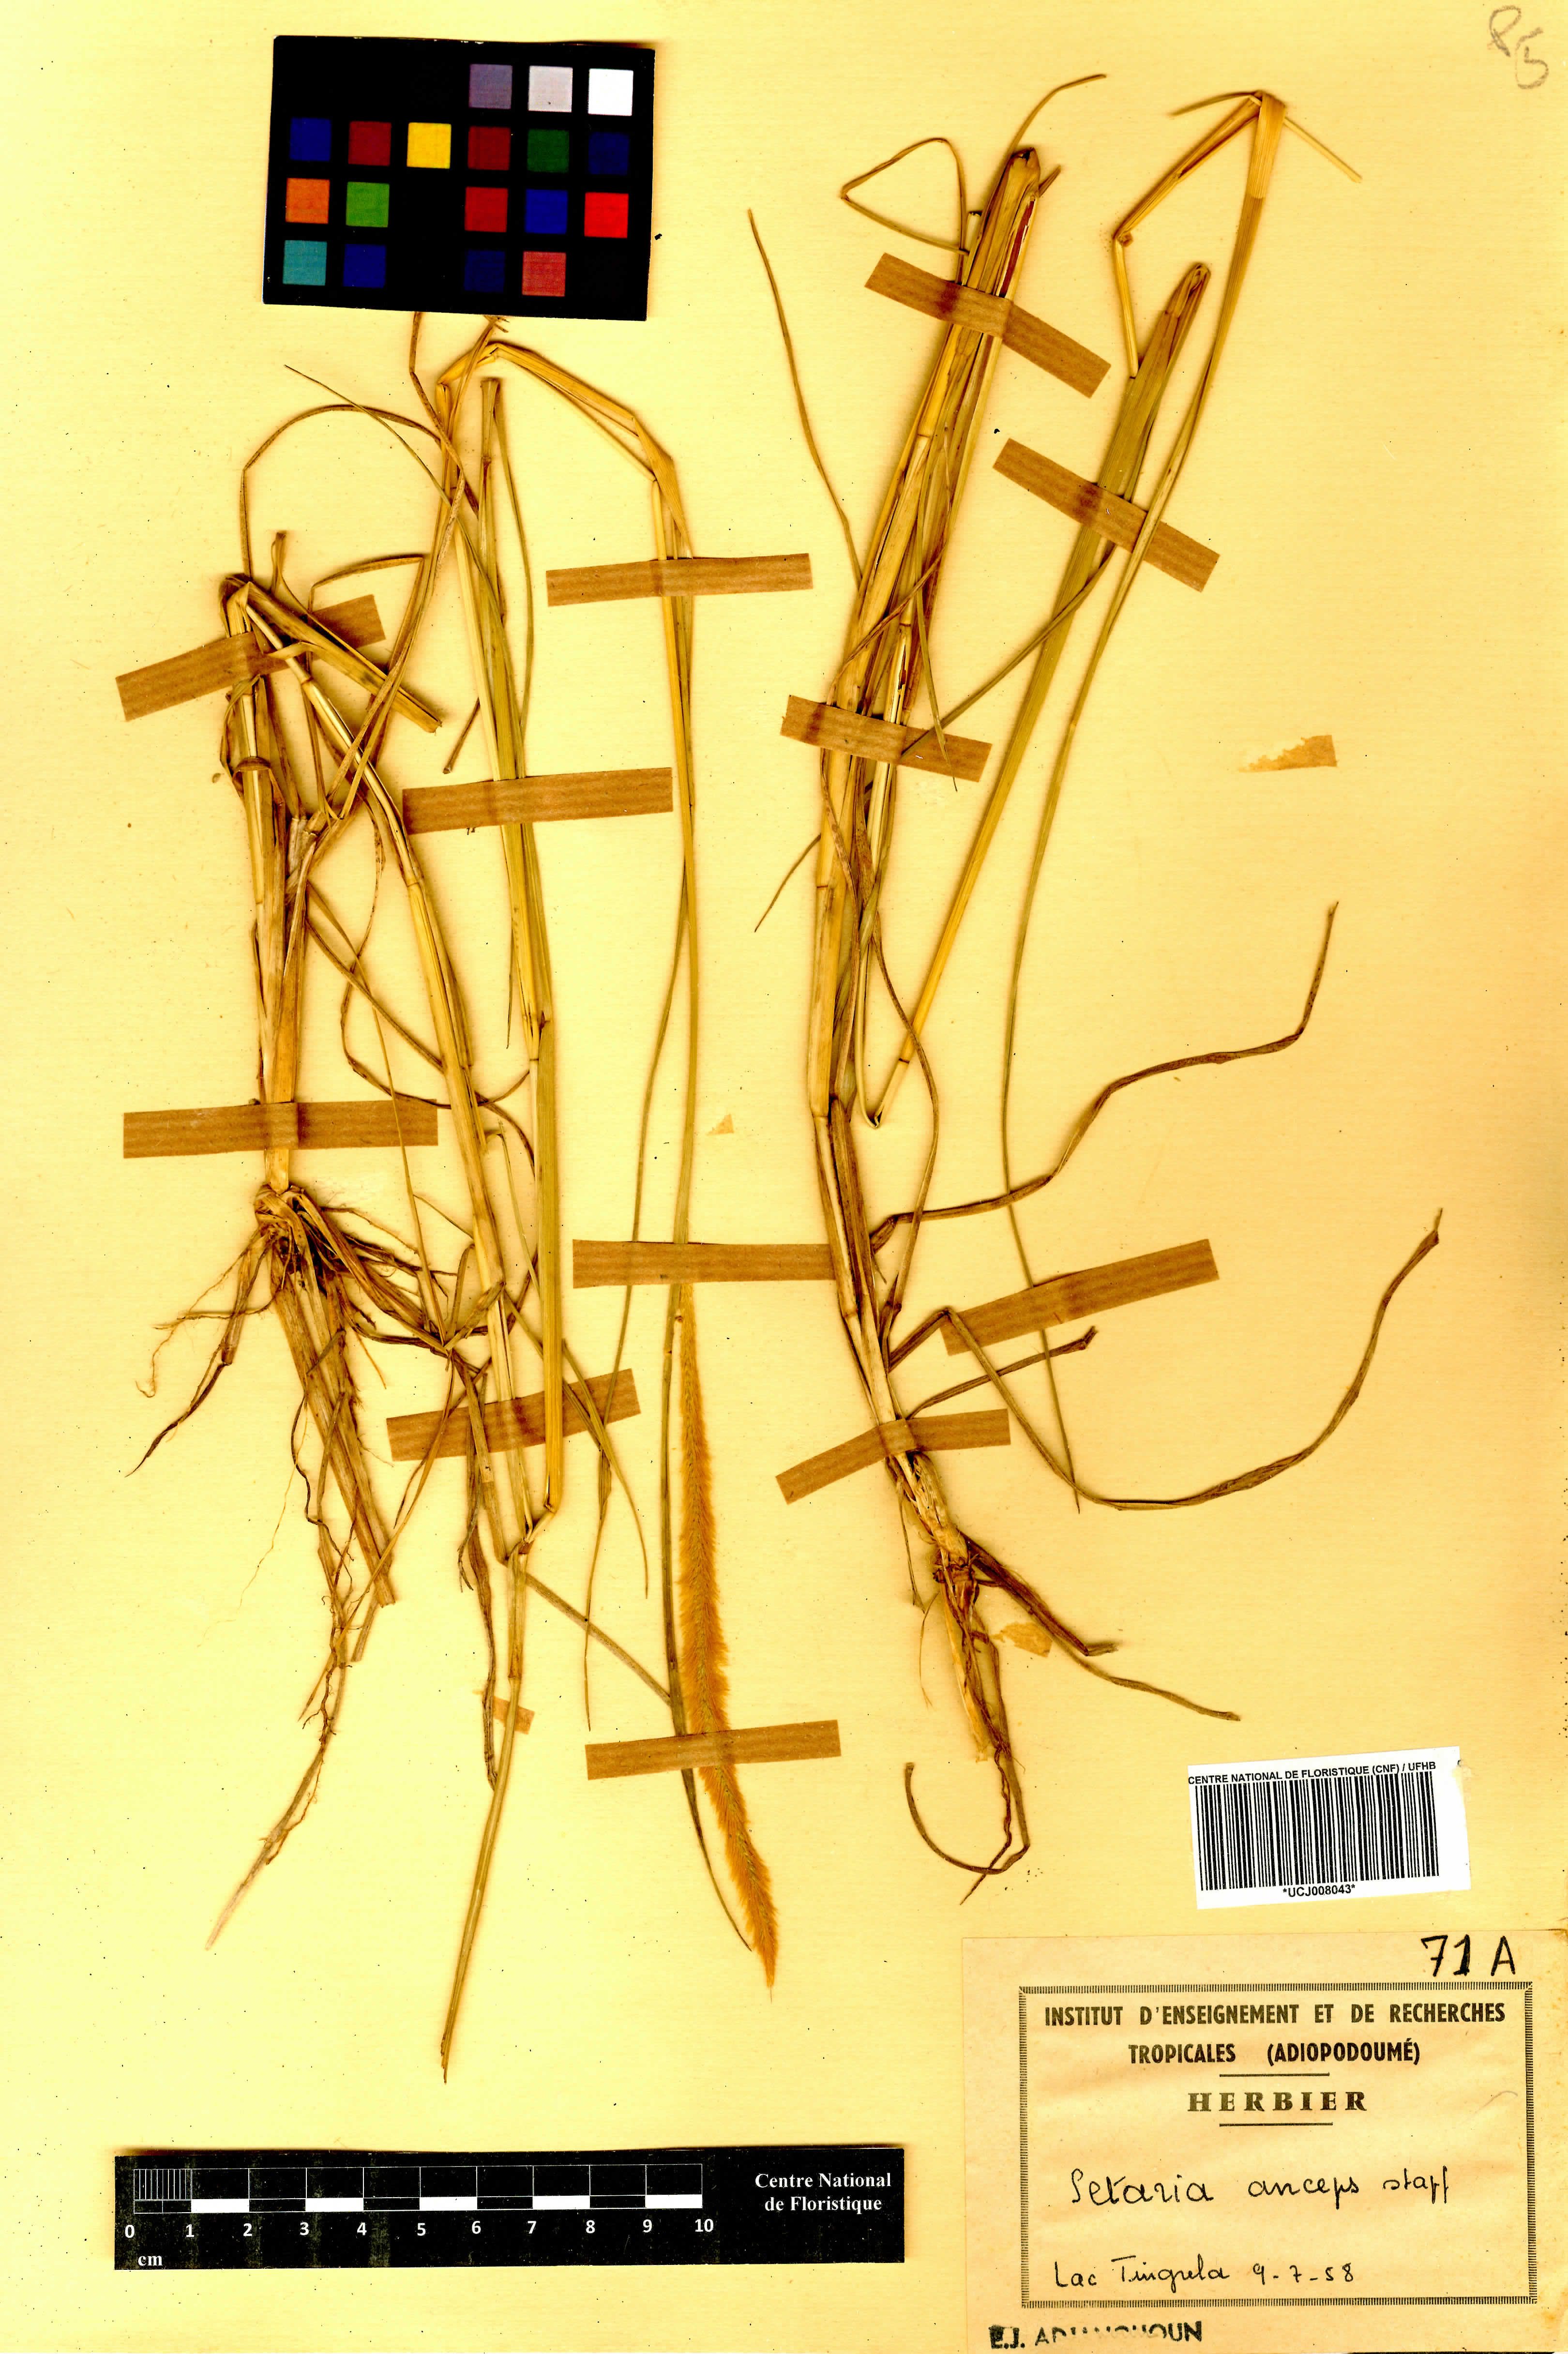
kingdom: Plantae
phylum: Tracheophyta
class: Liliopsida
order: Poales
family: Poaceae
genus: Setaria
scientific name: Setaria sphacelata
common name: African bristlegrass
